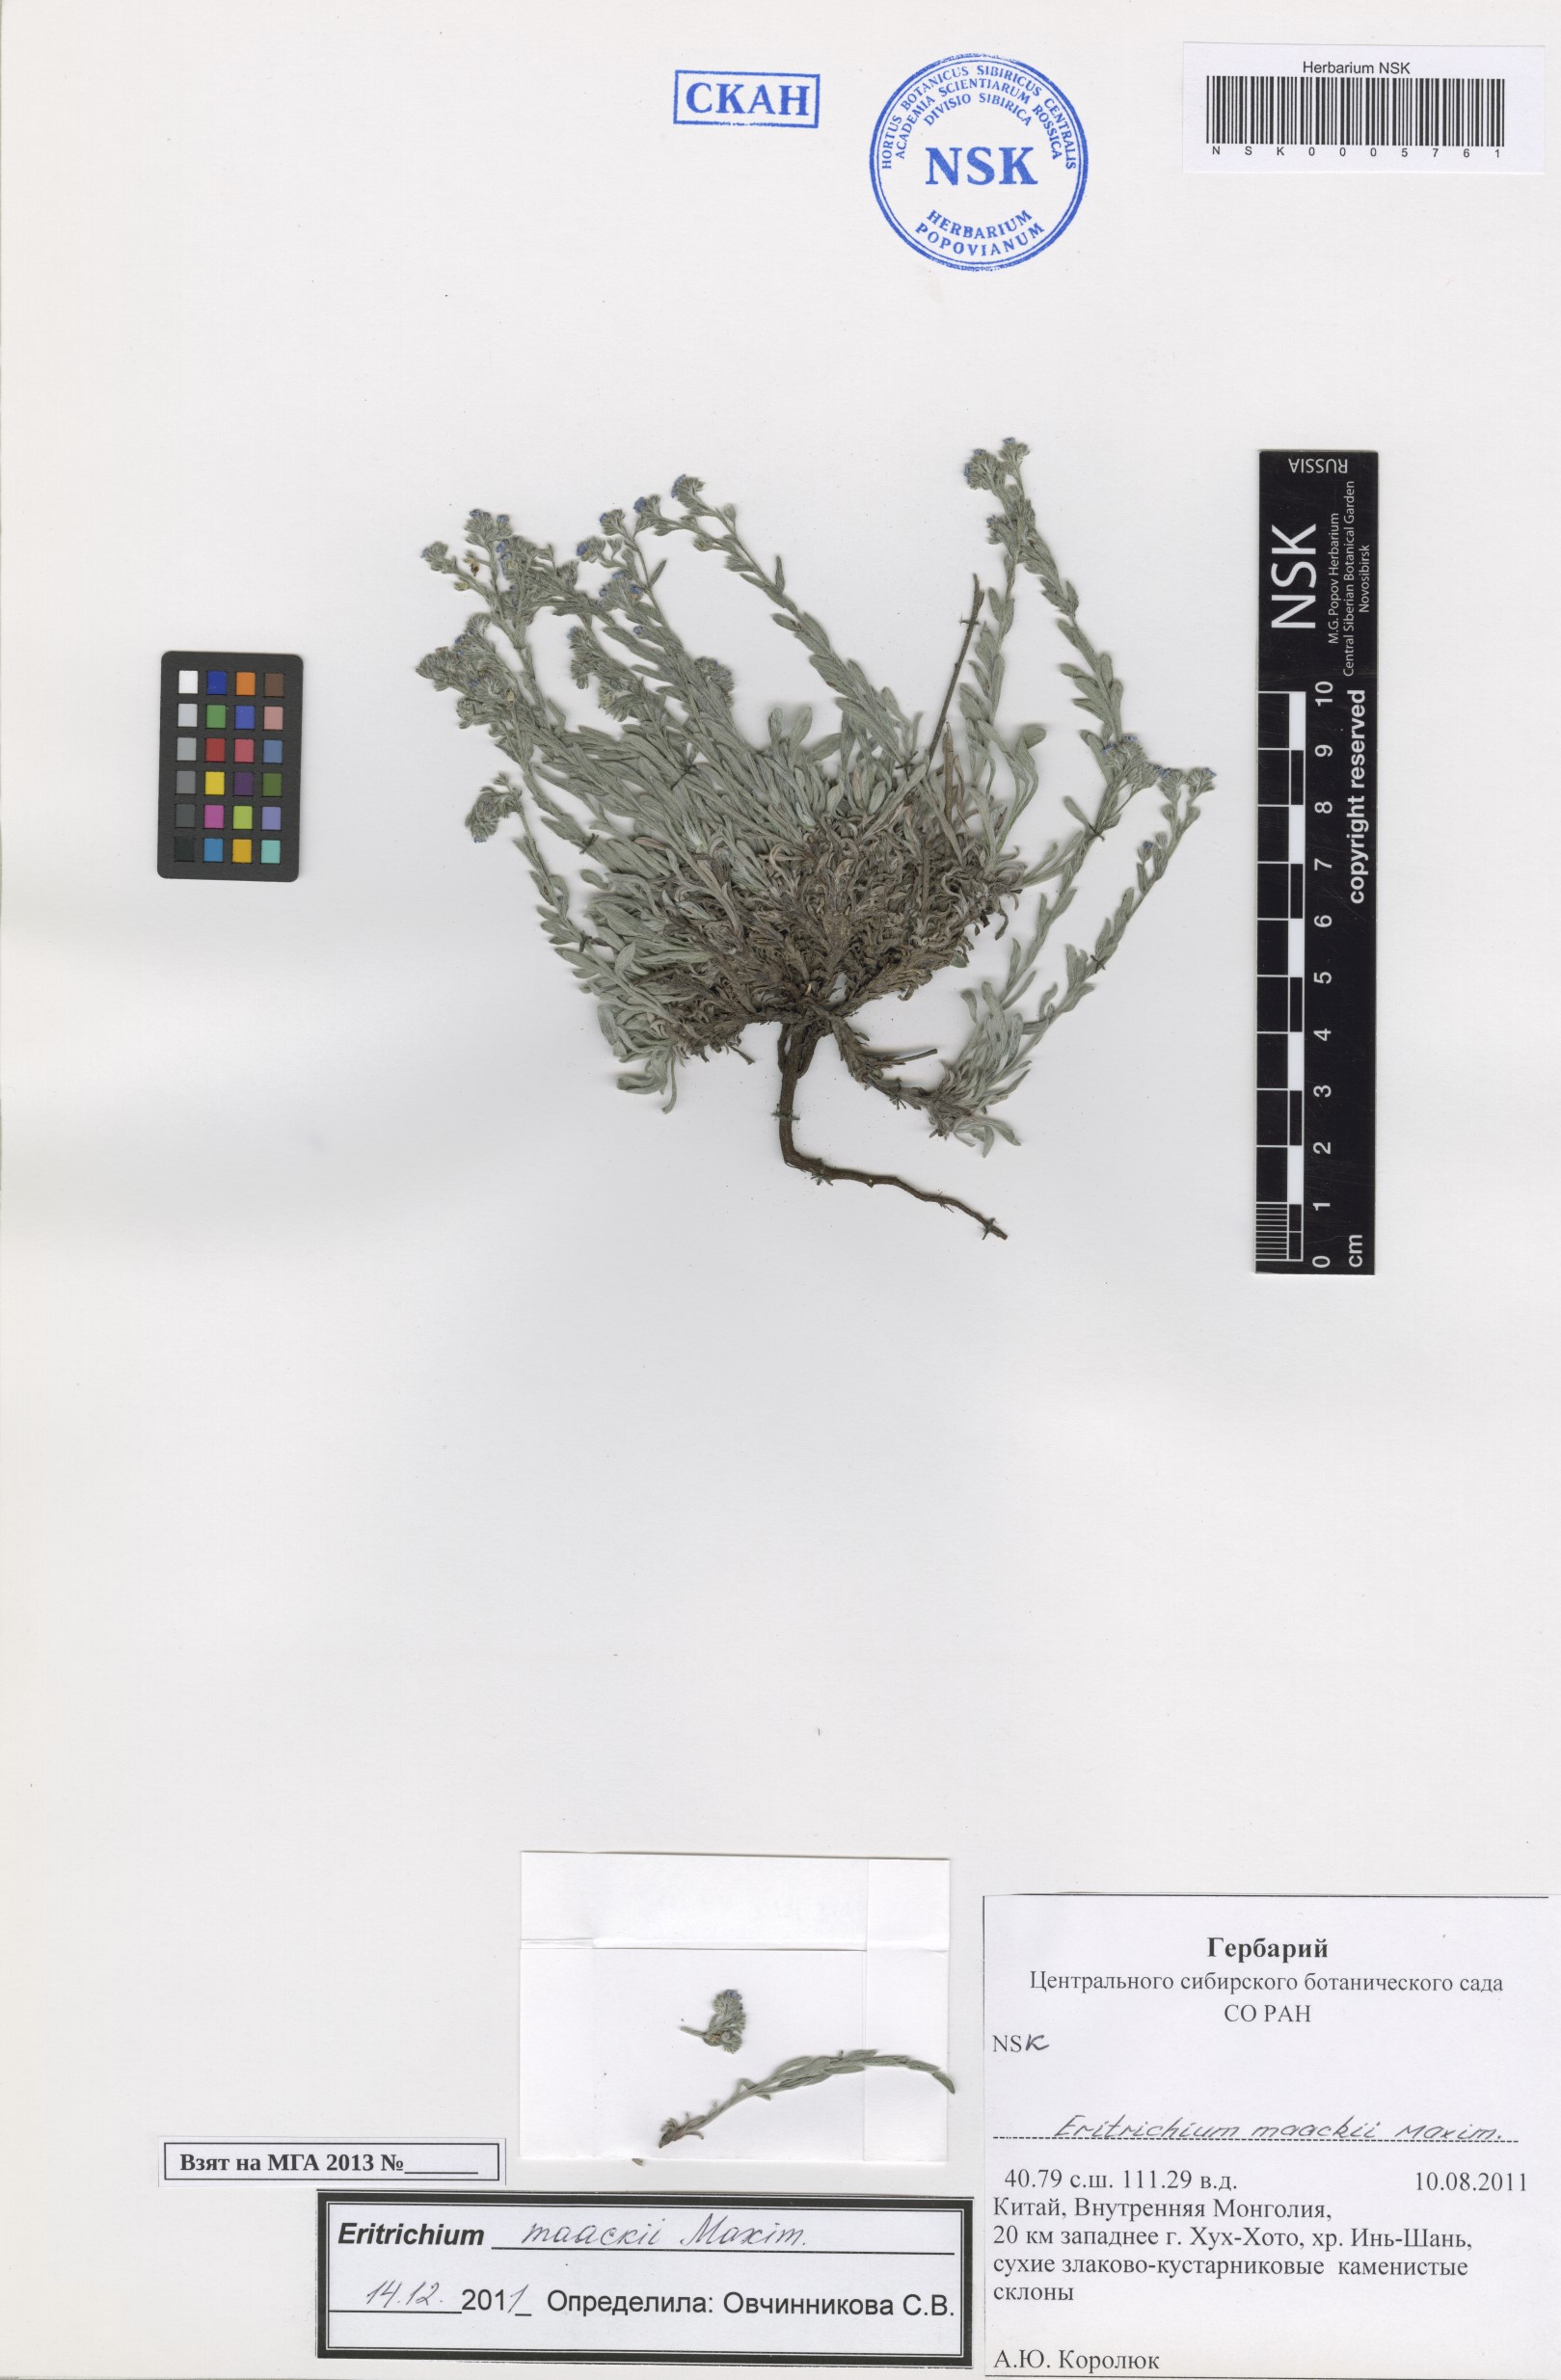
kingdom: Plantae
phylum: Tracheophyta
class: Magnoliopsida
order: Boraginales
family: Boraginaceae
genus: Eritrichium
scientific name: Eritrichium incanum
